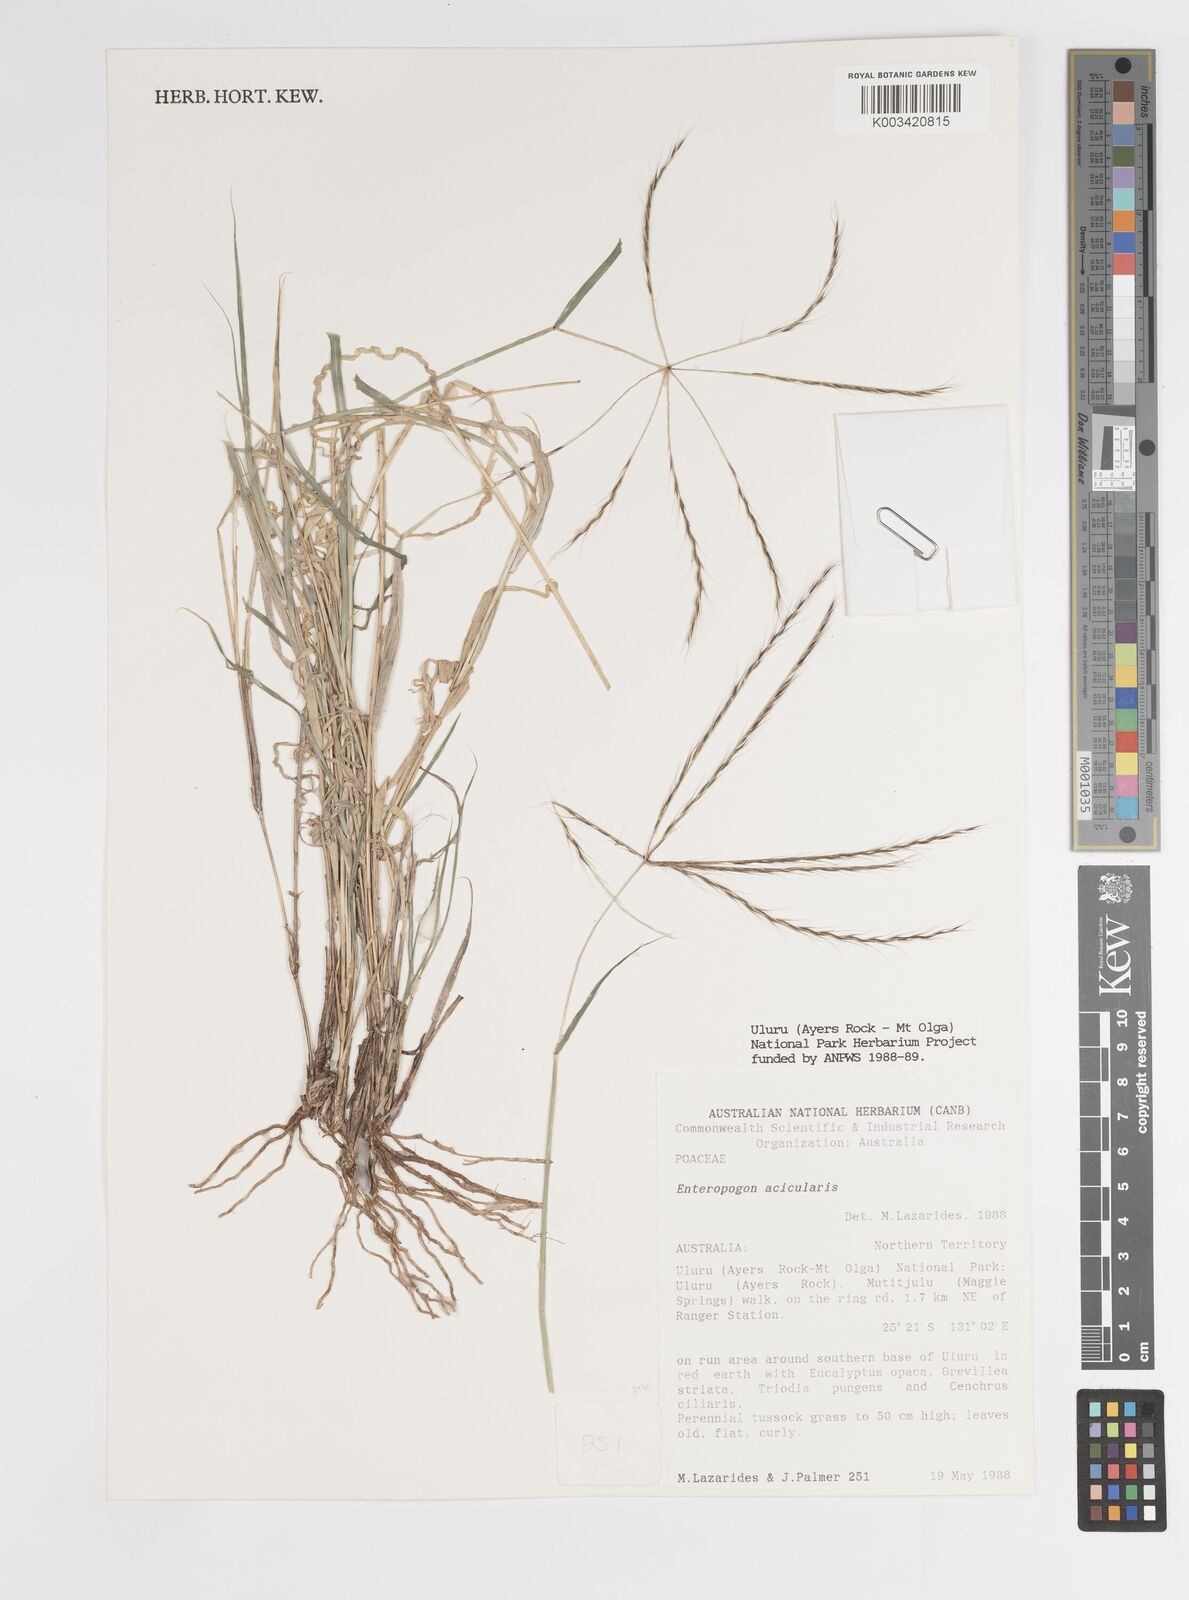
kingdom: Plantae
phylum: Tracheophyta
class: Liliopsida
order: Poales
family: Poaceae
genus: Enteropogon
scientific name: Enteropogon acicularis
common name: Curly windmill grass
